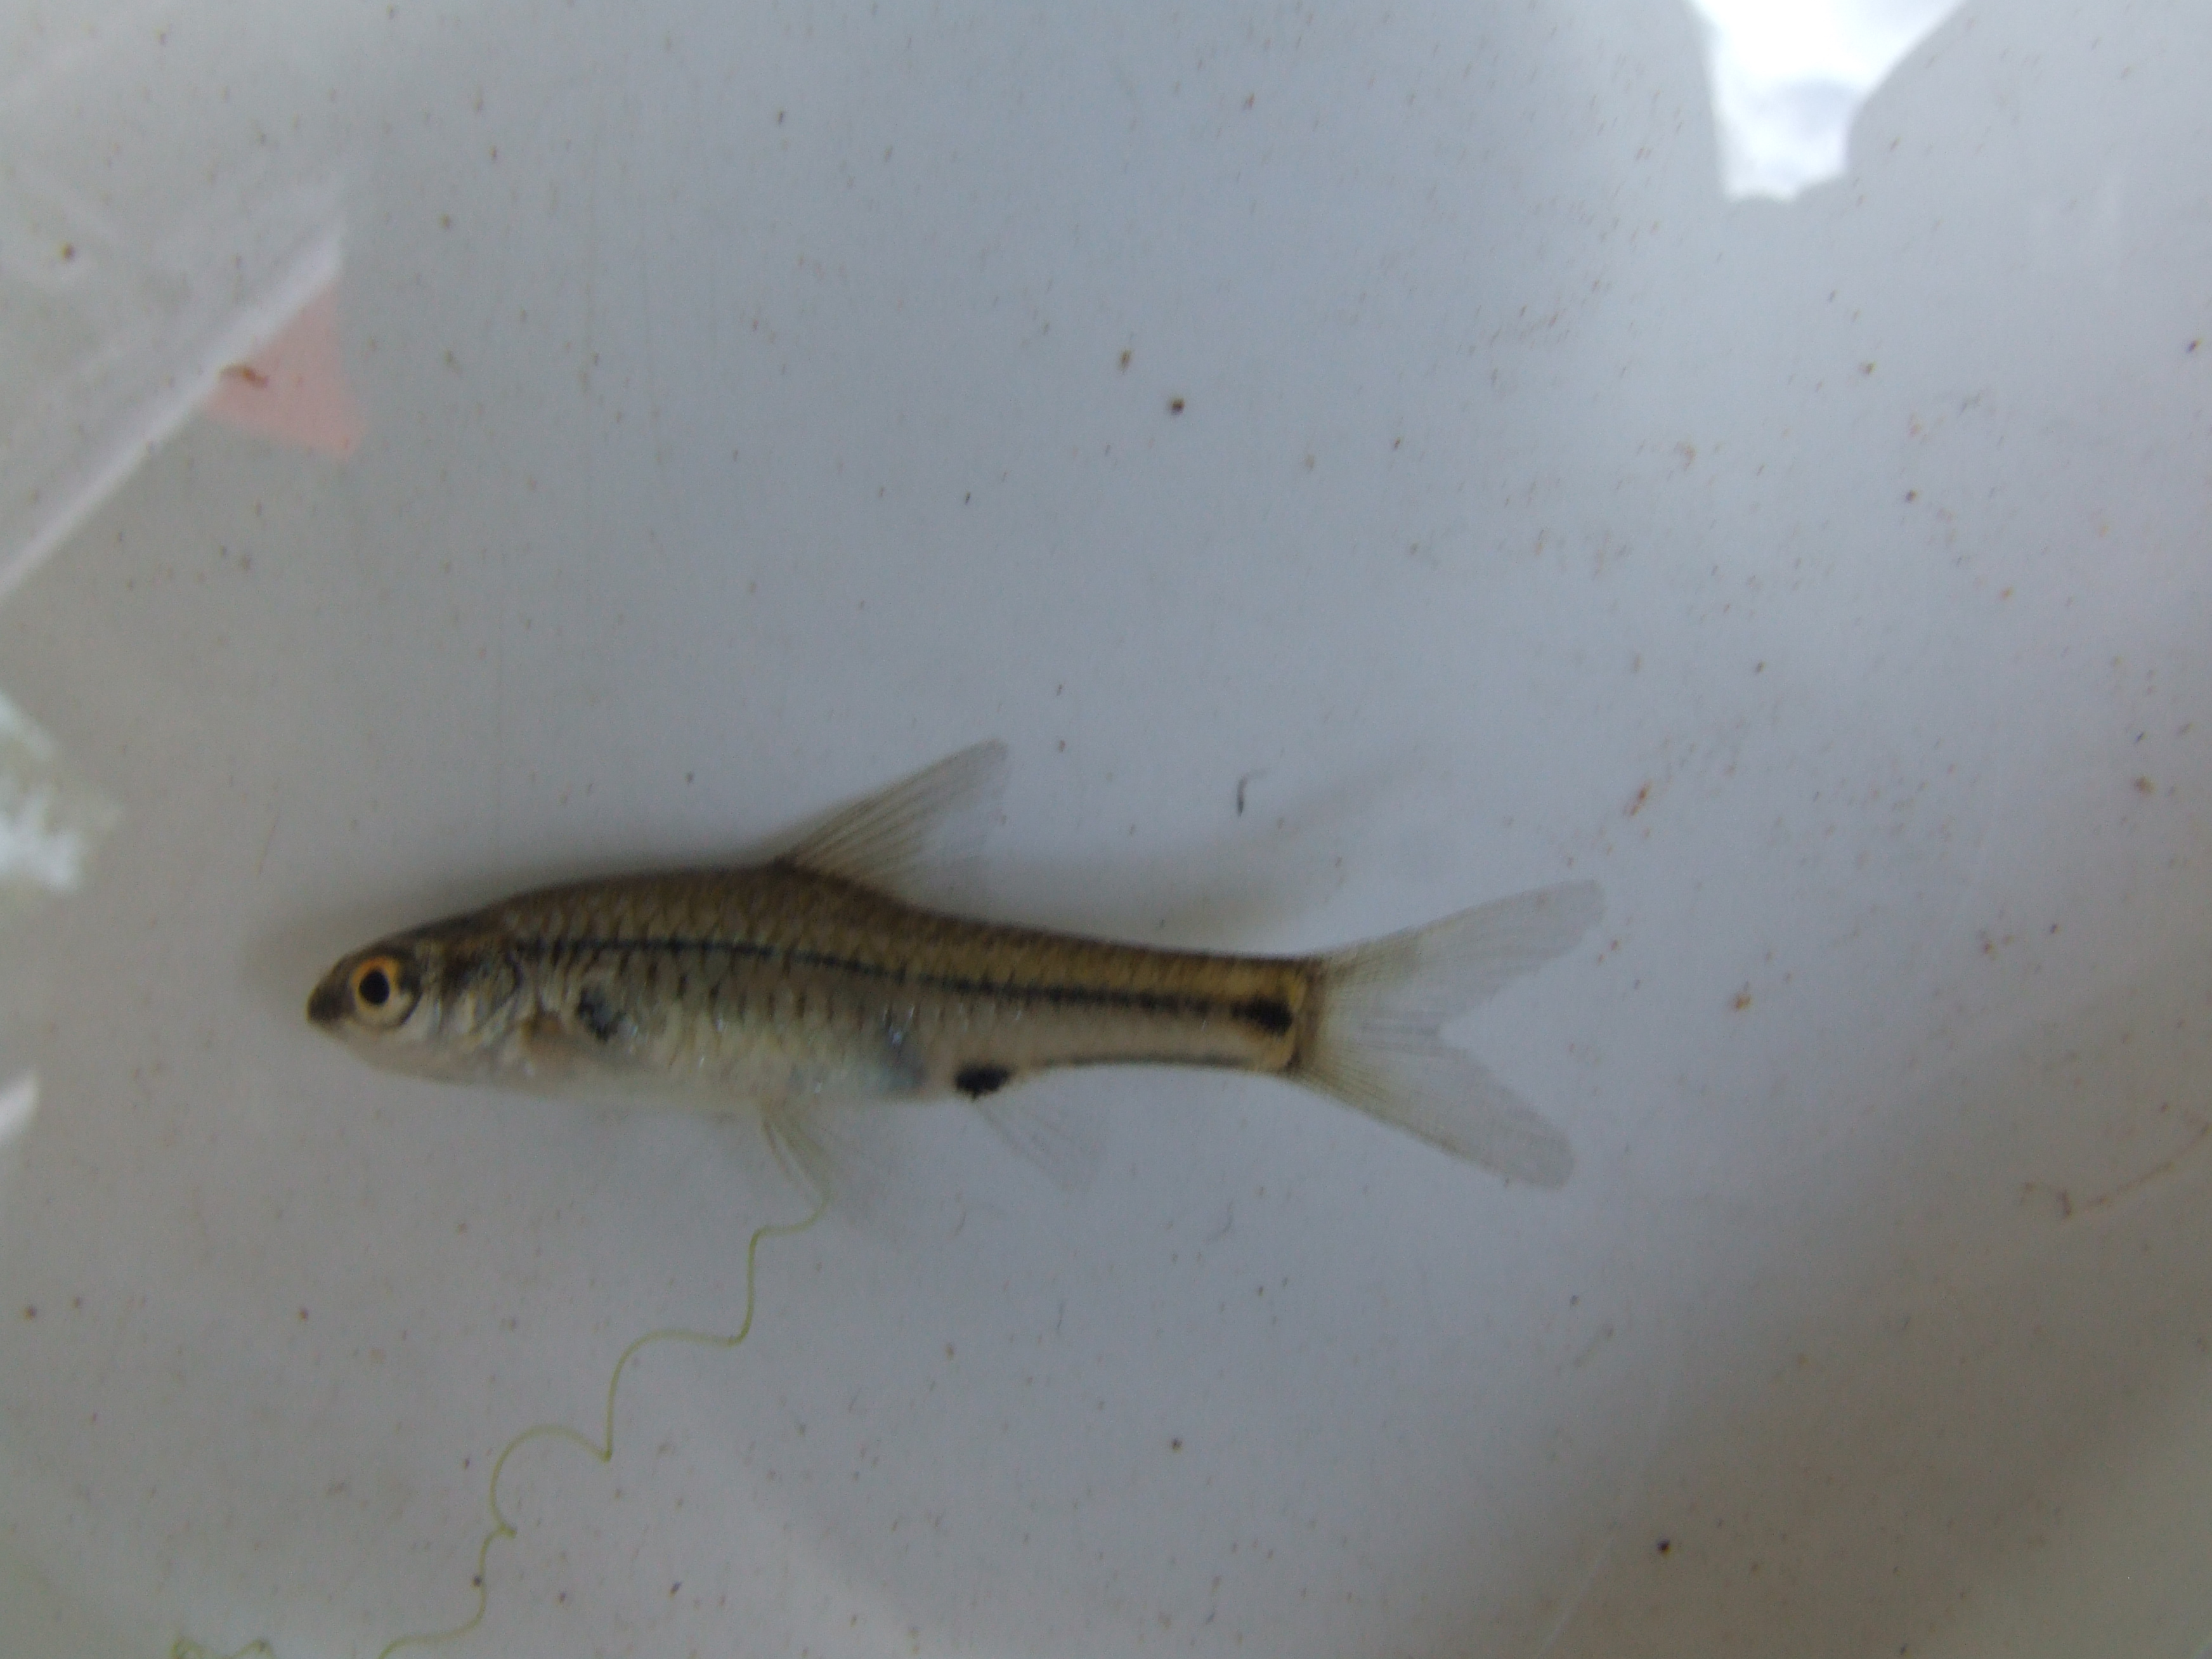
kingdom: Animalia
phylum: Chordata
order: Cypriniformes
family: Cyprinidae
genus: Barbus
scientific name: Barbus
